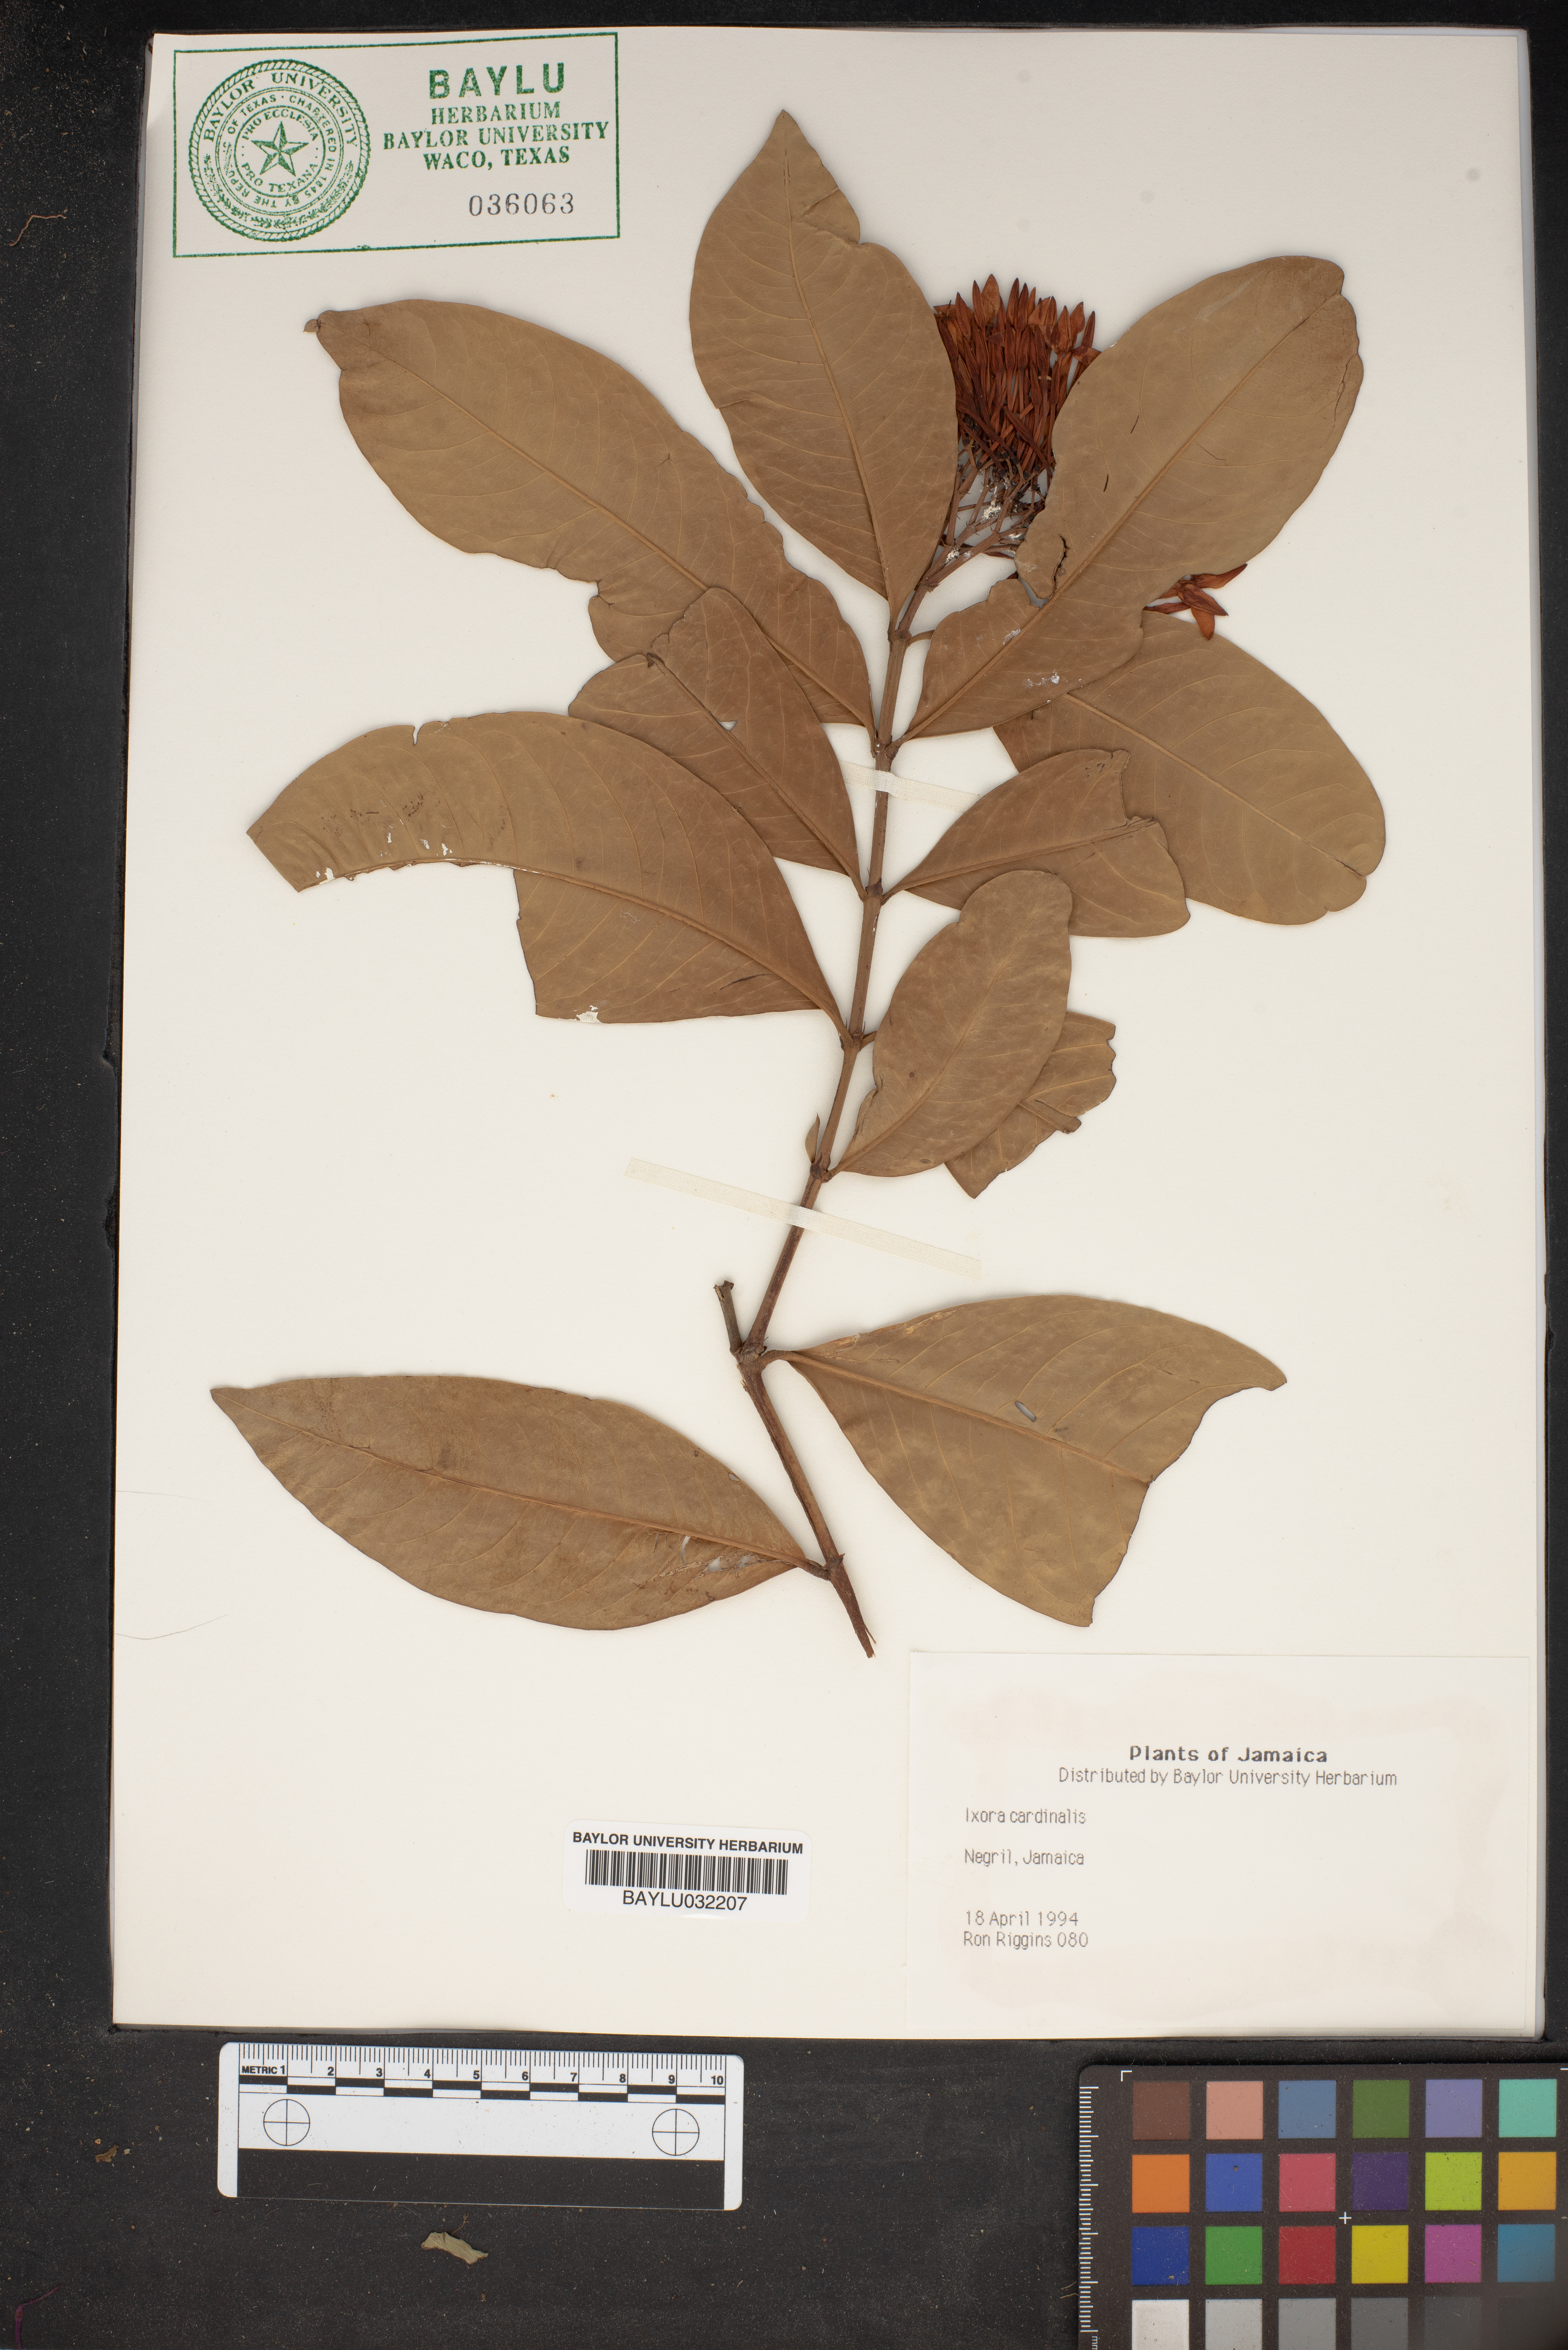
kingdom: Plantae
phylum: Tracheophyta
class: Magnoliopsida
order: Gentianales
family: Rubiaceae
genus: Ixora
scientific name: Ixora
